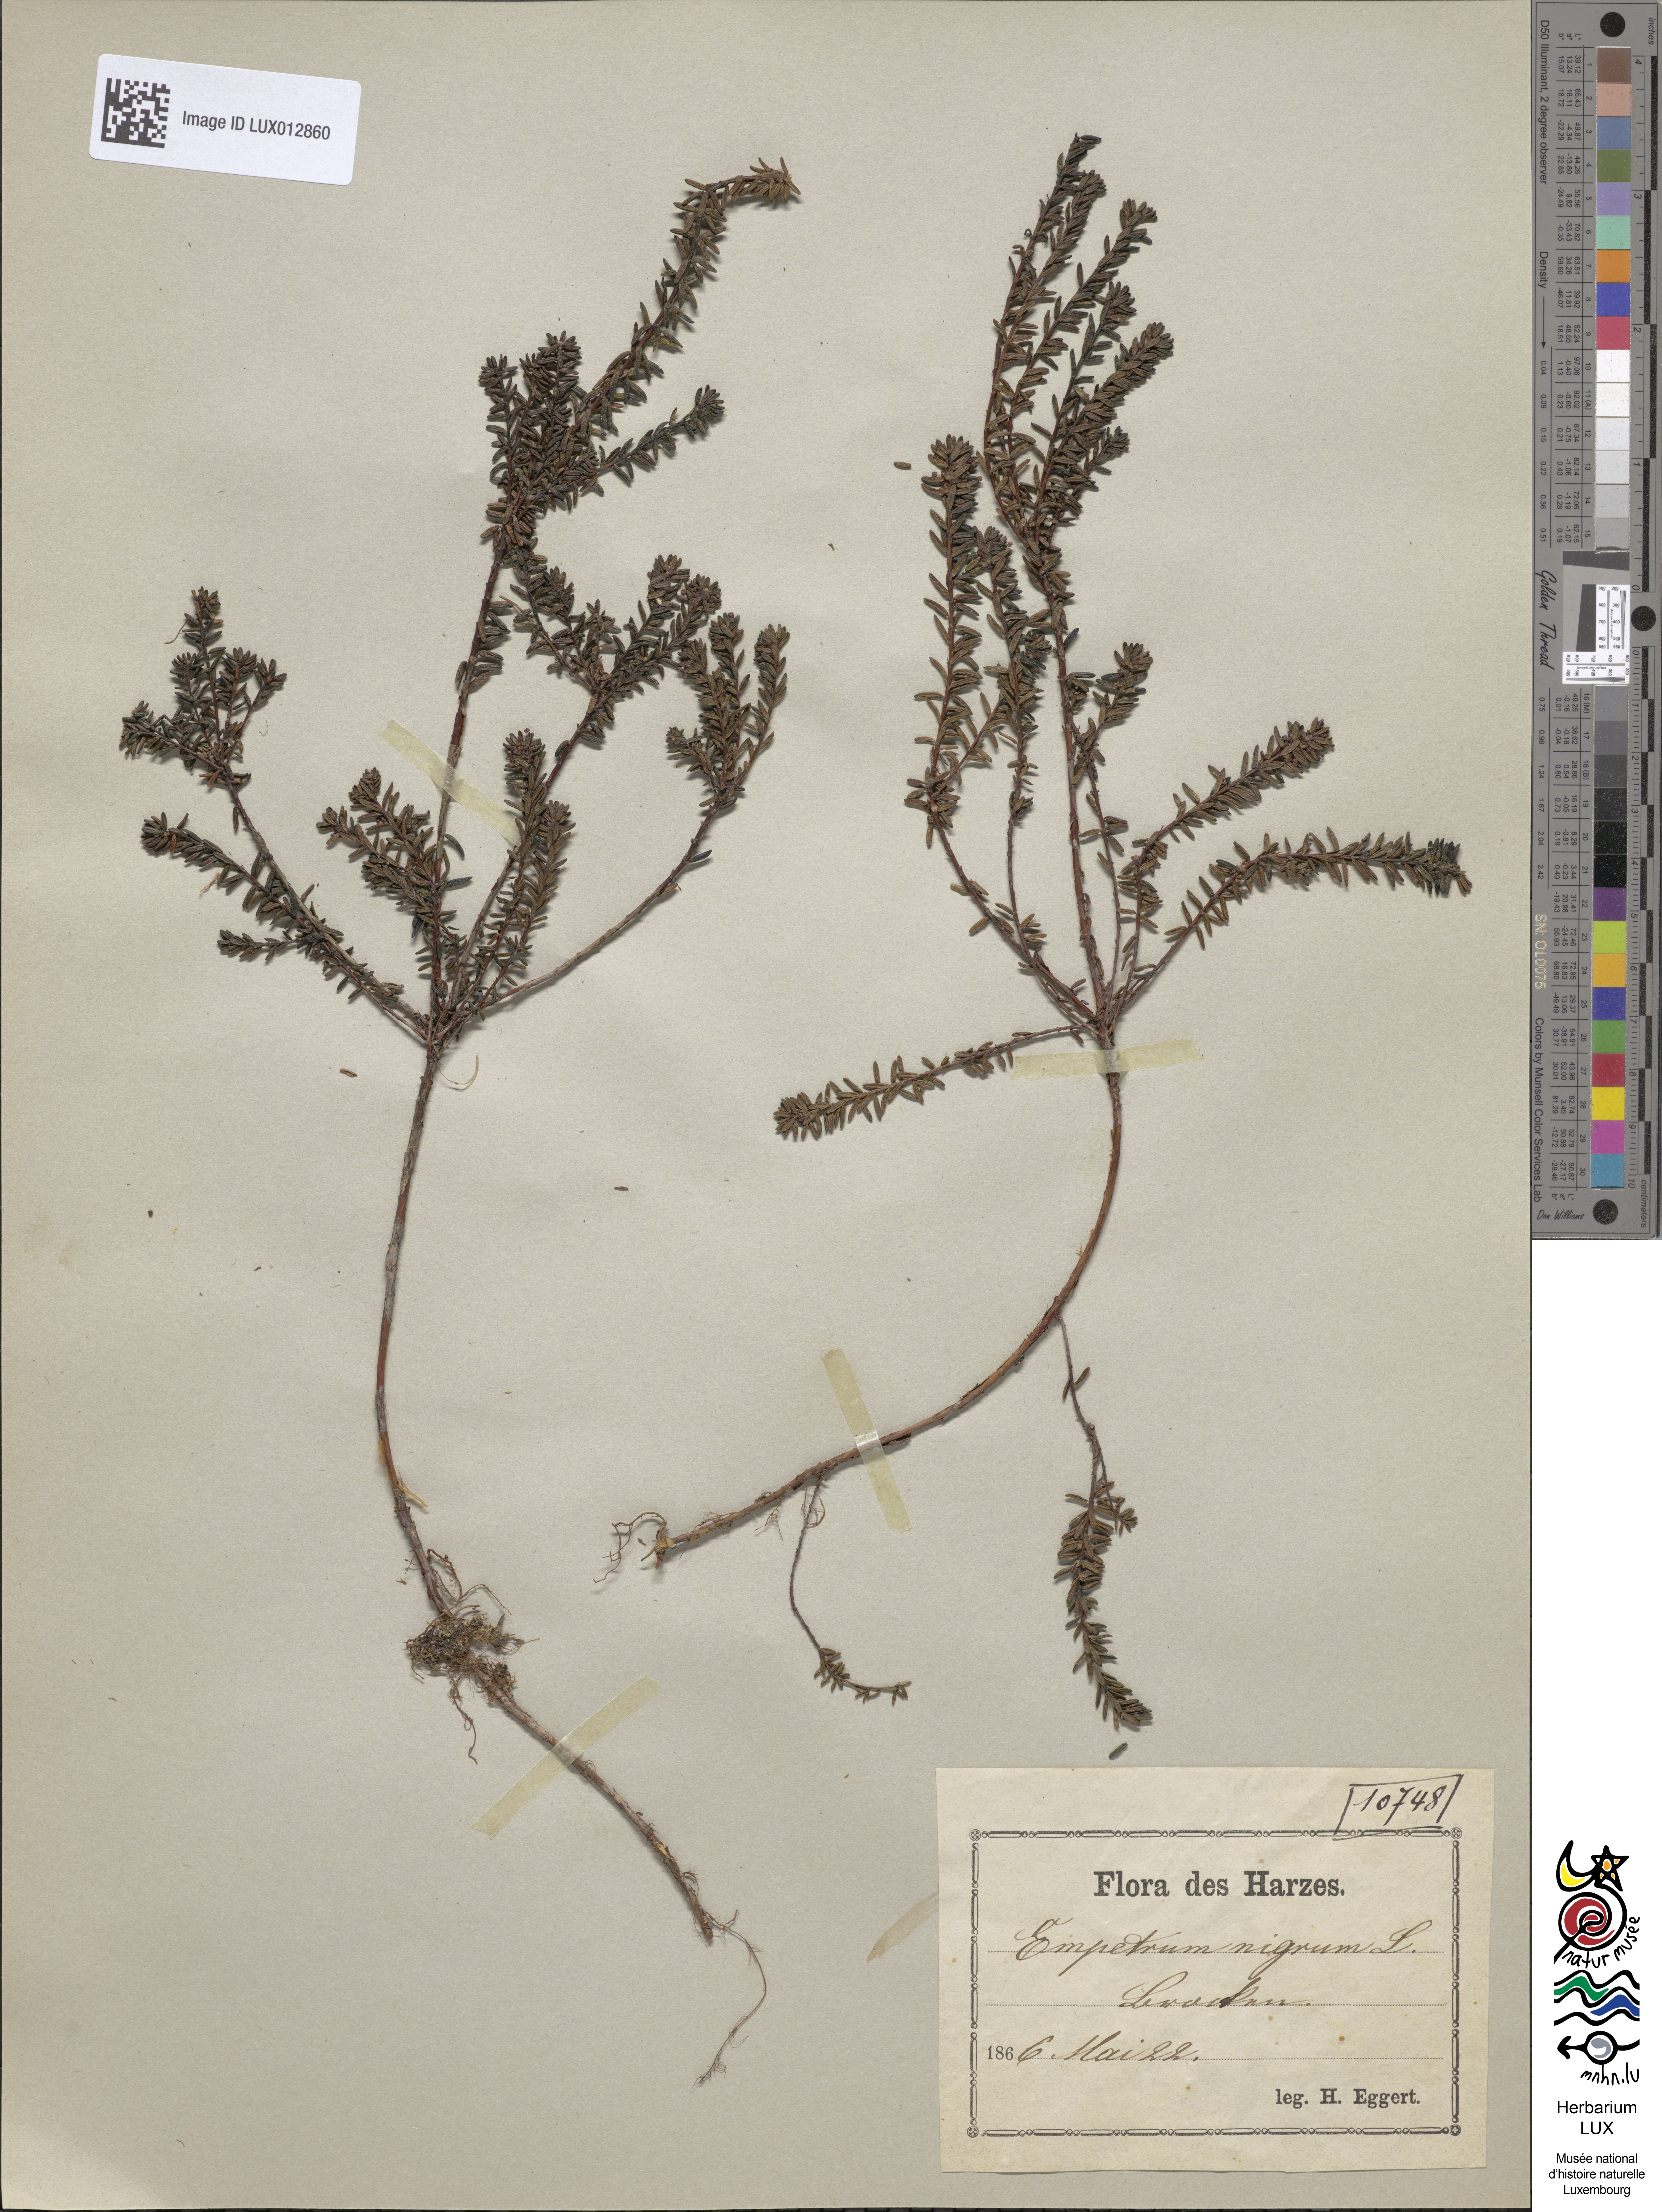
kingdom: Plantae
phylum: Tracheophyta
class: Magnoliopsida
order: Ericales
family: Ericaceae
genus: Empetrum
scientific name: Empetrum nigrum
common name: Black crowberry
